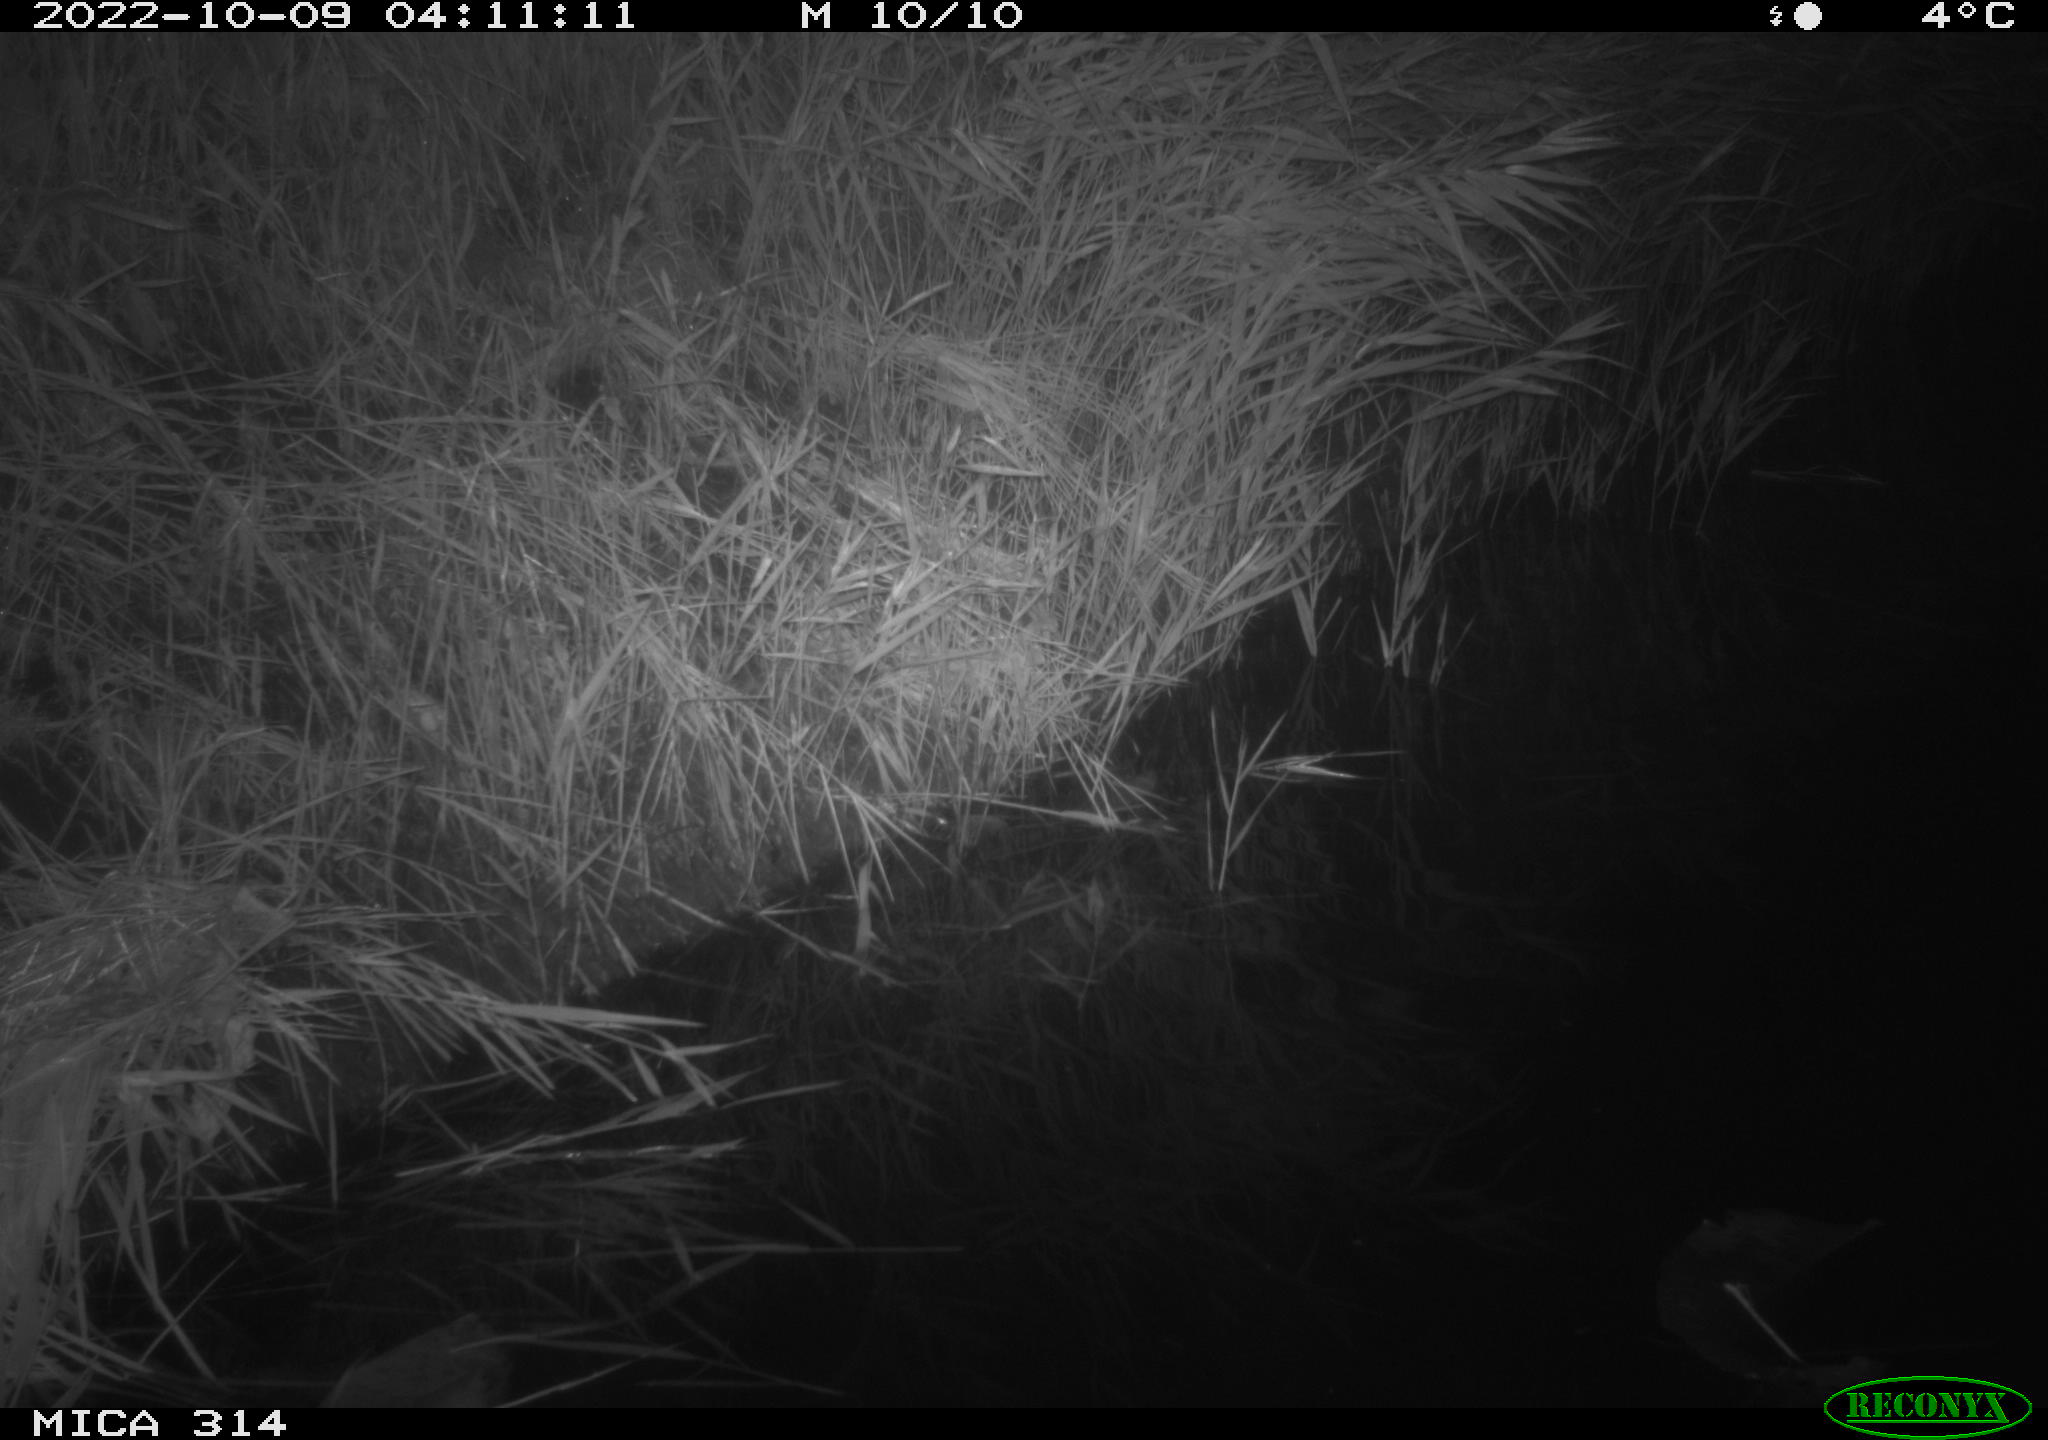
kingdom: Animalia
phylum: Chordata
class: Mammalia
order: Rodentia
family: Muridae
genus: Rattus
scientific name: Rattus norvegicus
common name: Brown rat
